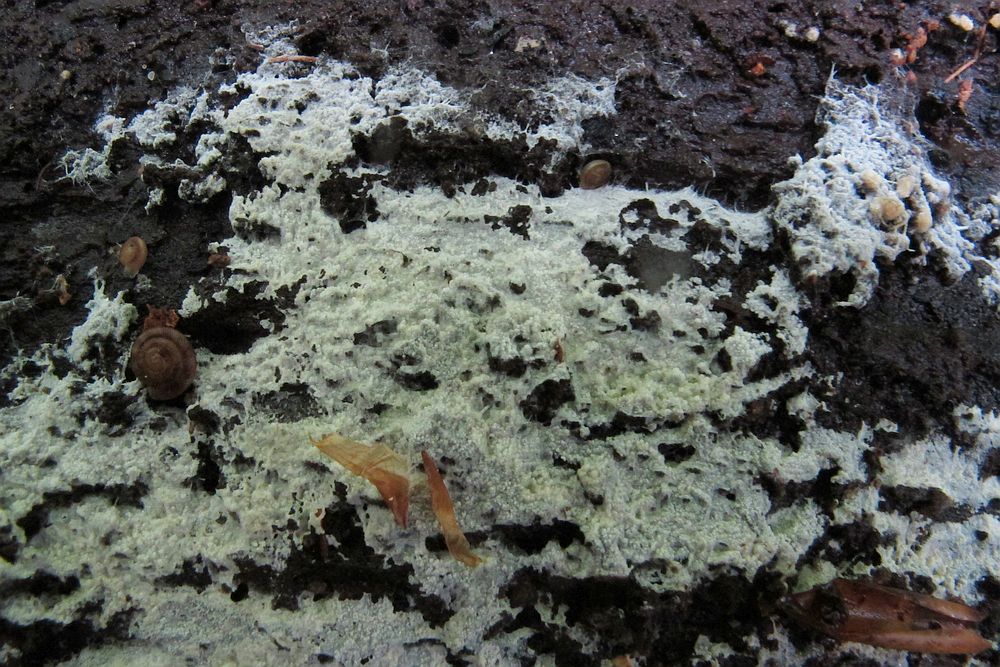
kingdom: Fungi
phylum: Basidiomycota
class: Agaricomycetes
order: Cantharellales
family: Hydnaceae
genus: Sistotrema
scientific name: Sistotrema brinkmannii
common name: bønnesporet kroneskorpe
